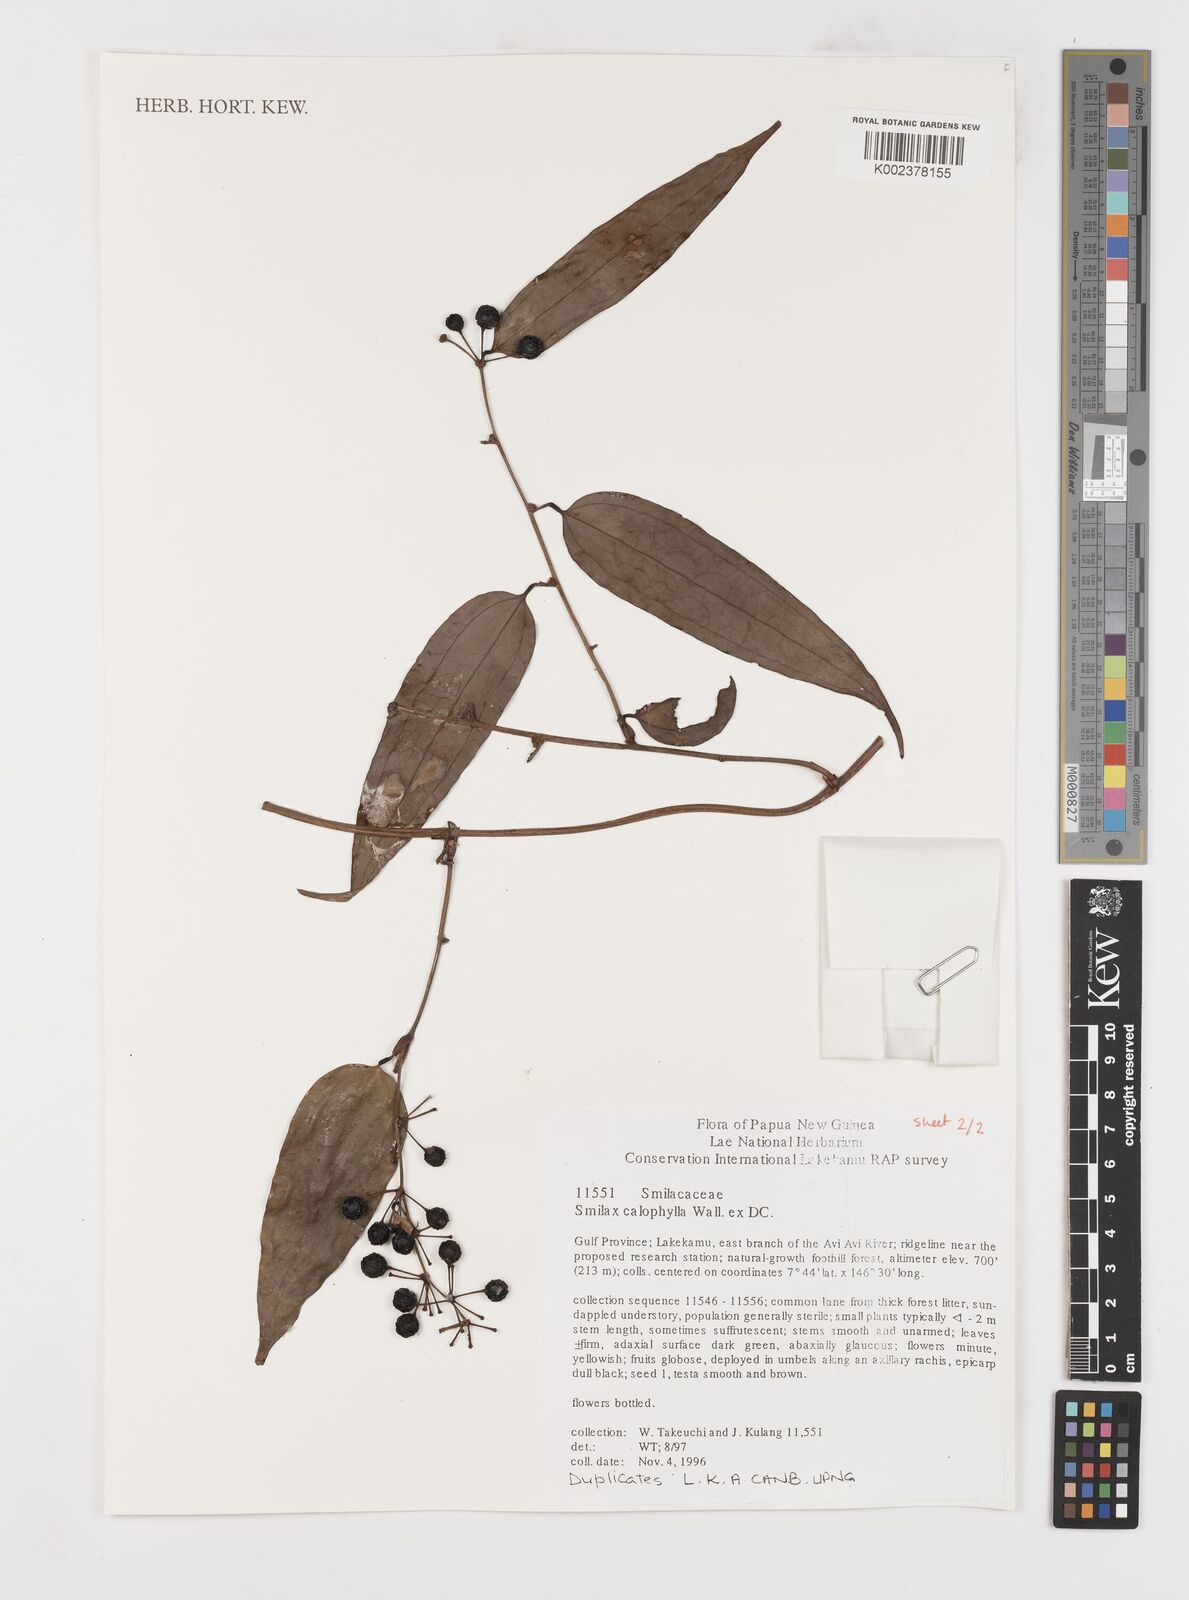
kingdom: Plantae
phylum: Tracheophyta
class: Liliopsida
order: Liliales
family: Smilacaceae
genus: Smilax
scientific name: Smilax calophylla
